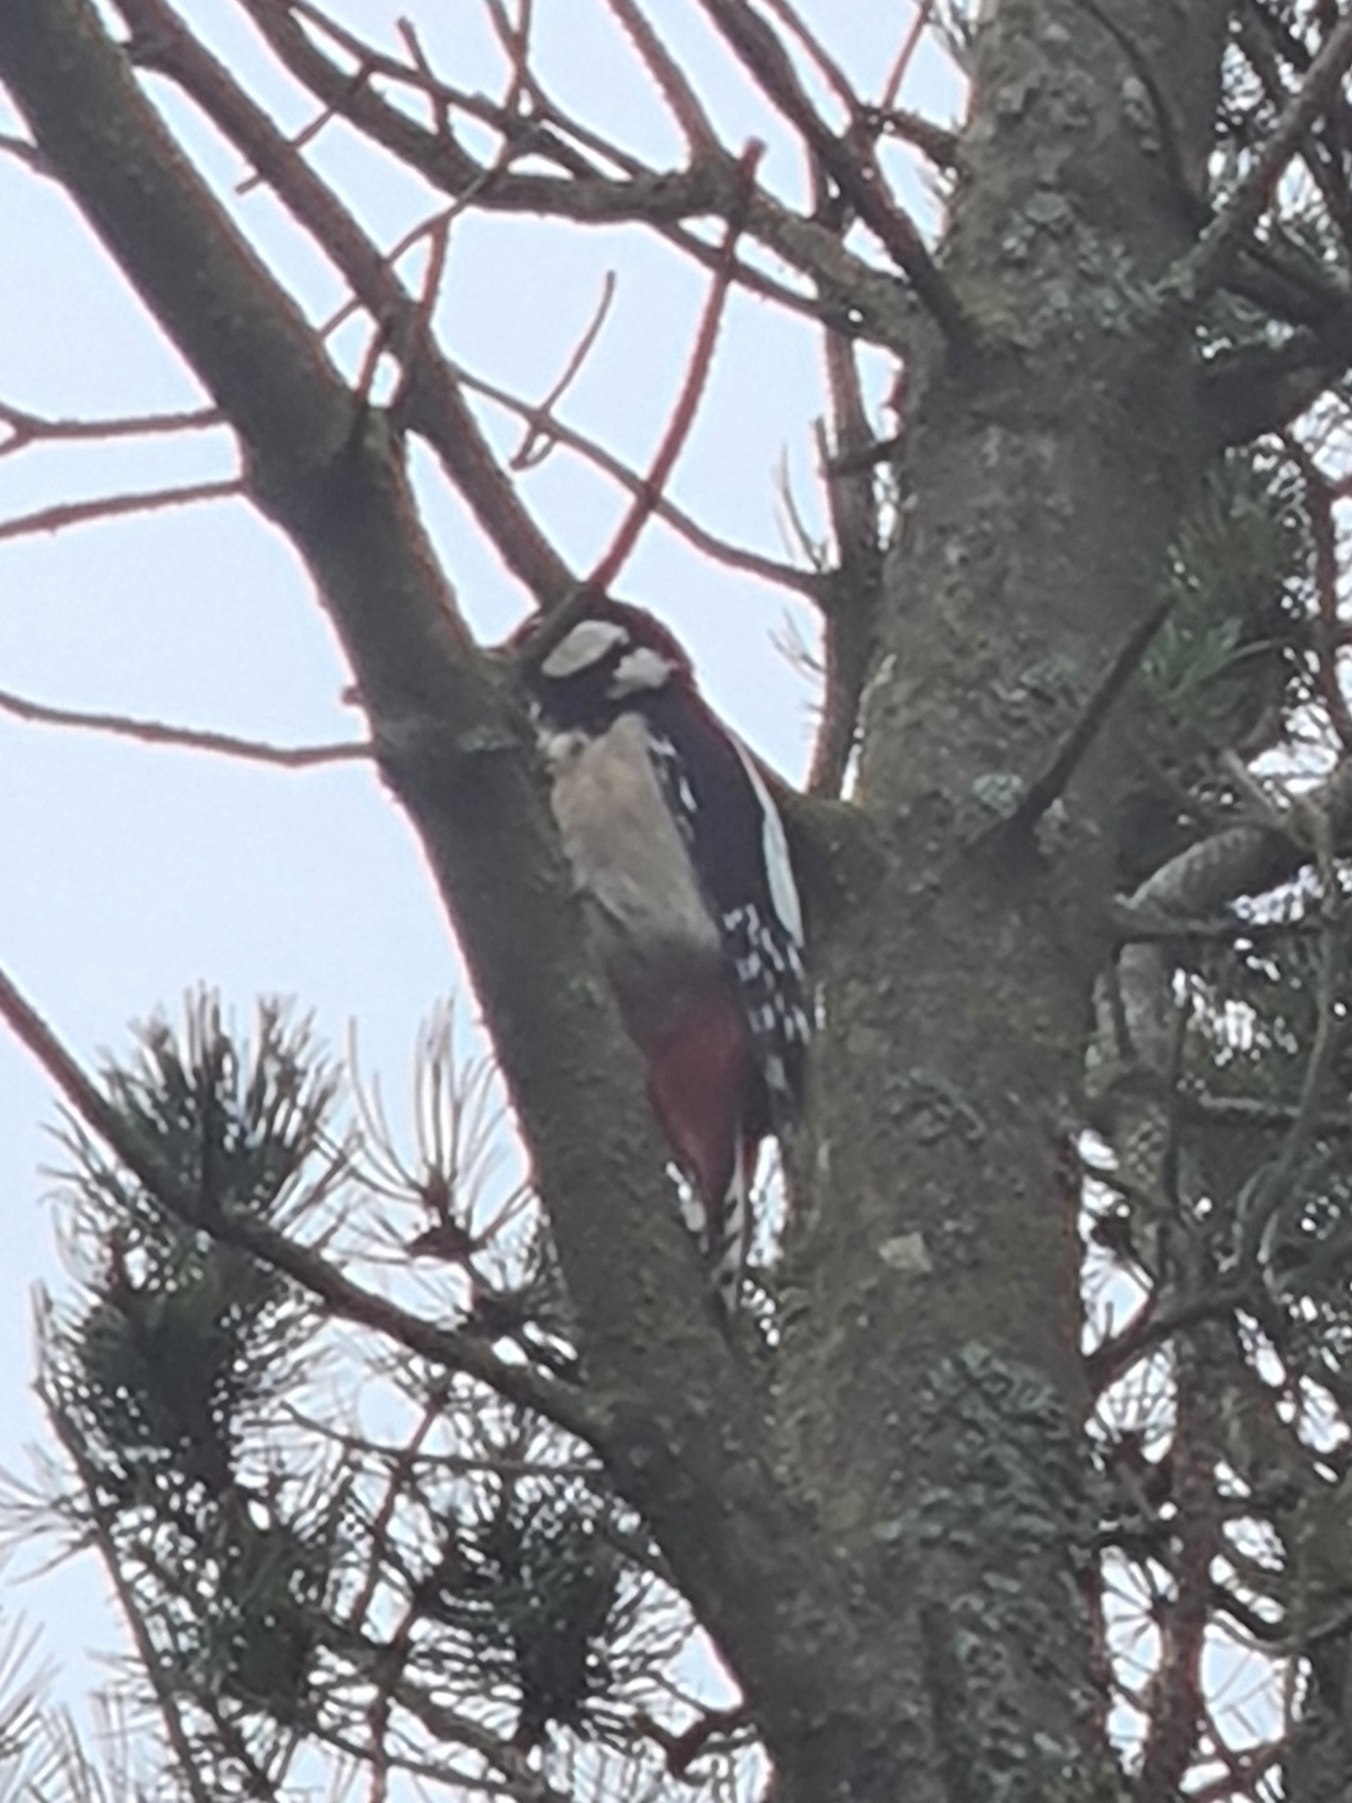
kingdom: Animalia
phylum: Chordata
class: Aves
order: Piciformes
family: Picidae
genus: Dendrocopos
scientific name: Dendrocopos major
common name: Stor flagspætte
